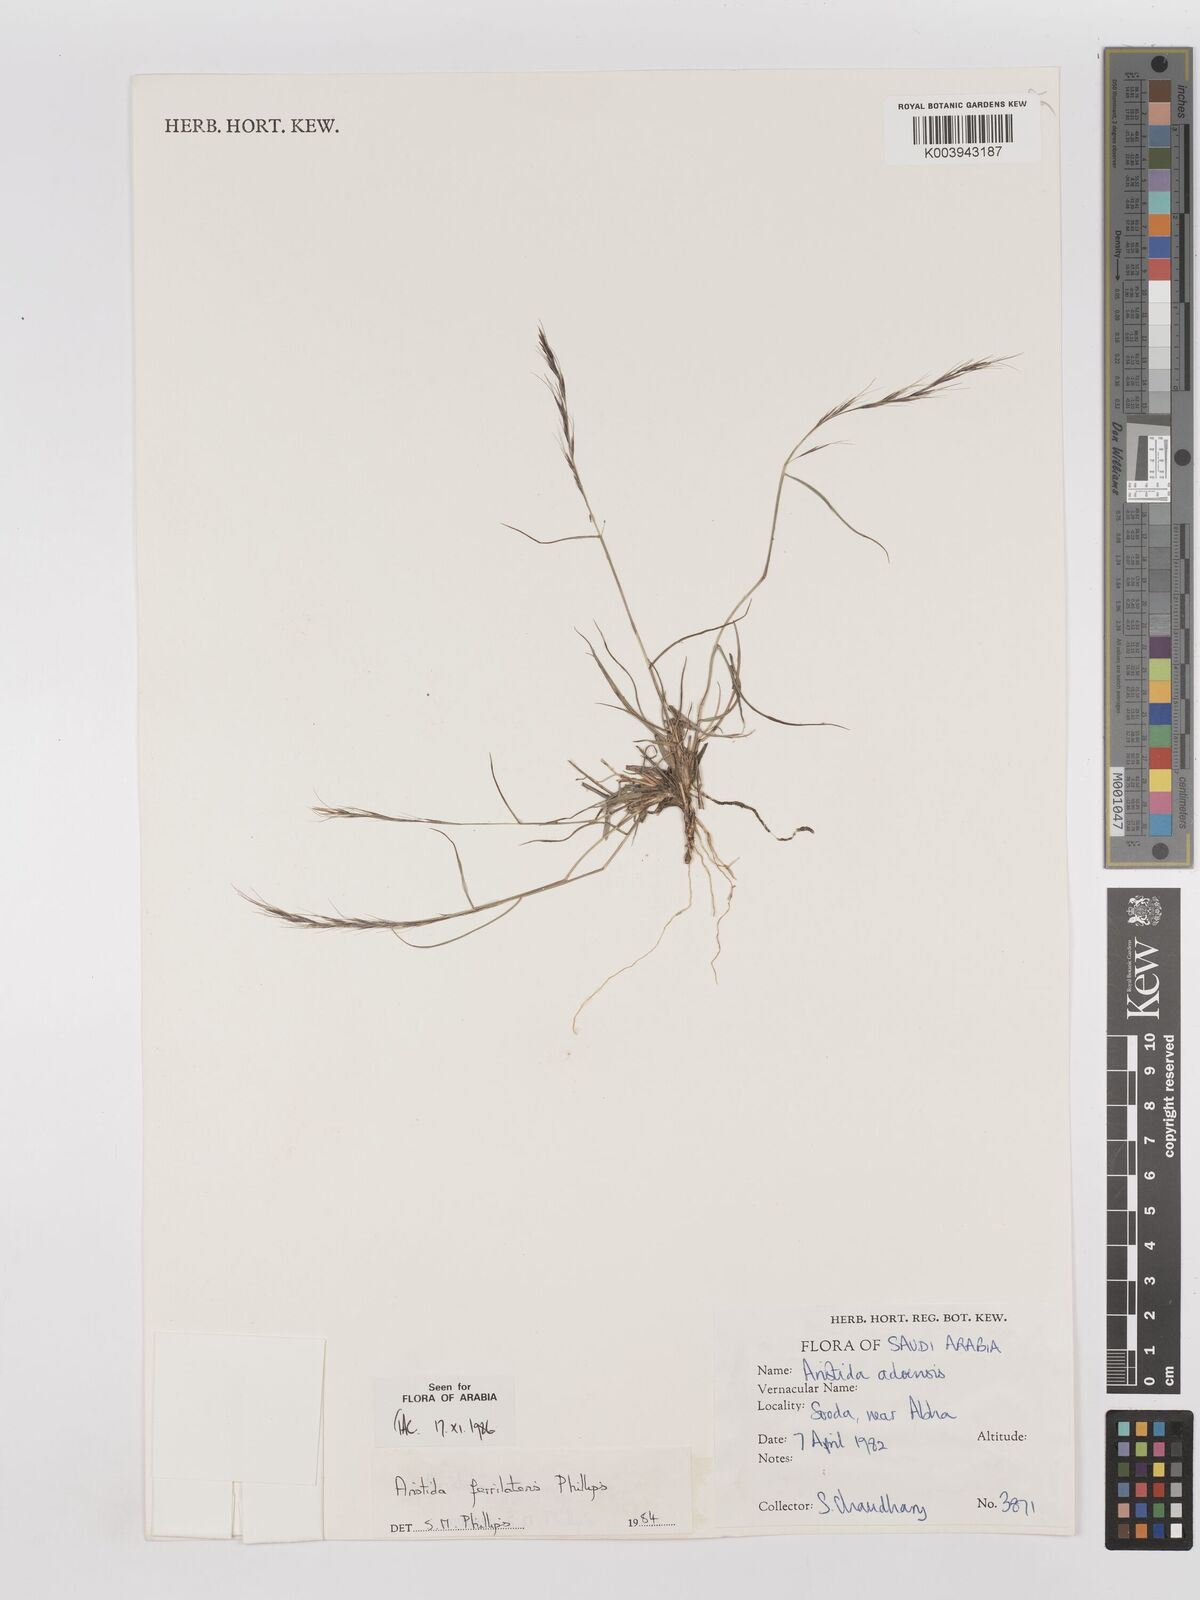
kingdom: Plantae
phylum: Tracheophyta
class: Liliopsida
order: Poales
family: Poaceae
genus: Aristida
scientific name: Aristida ferrilateris
